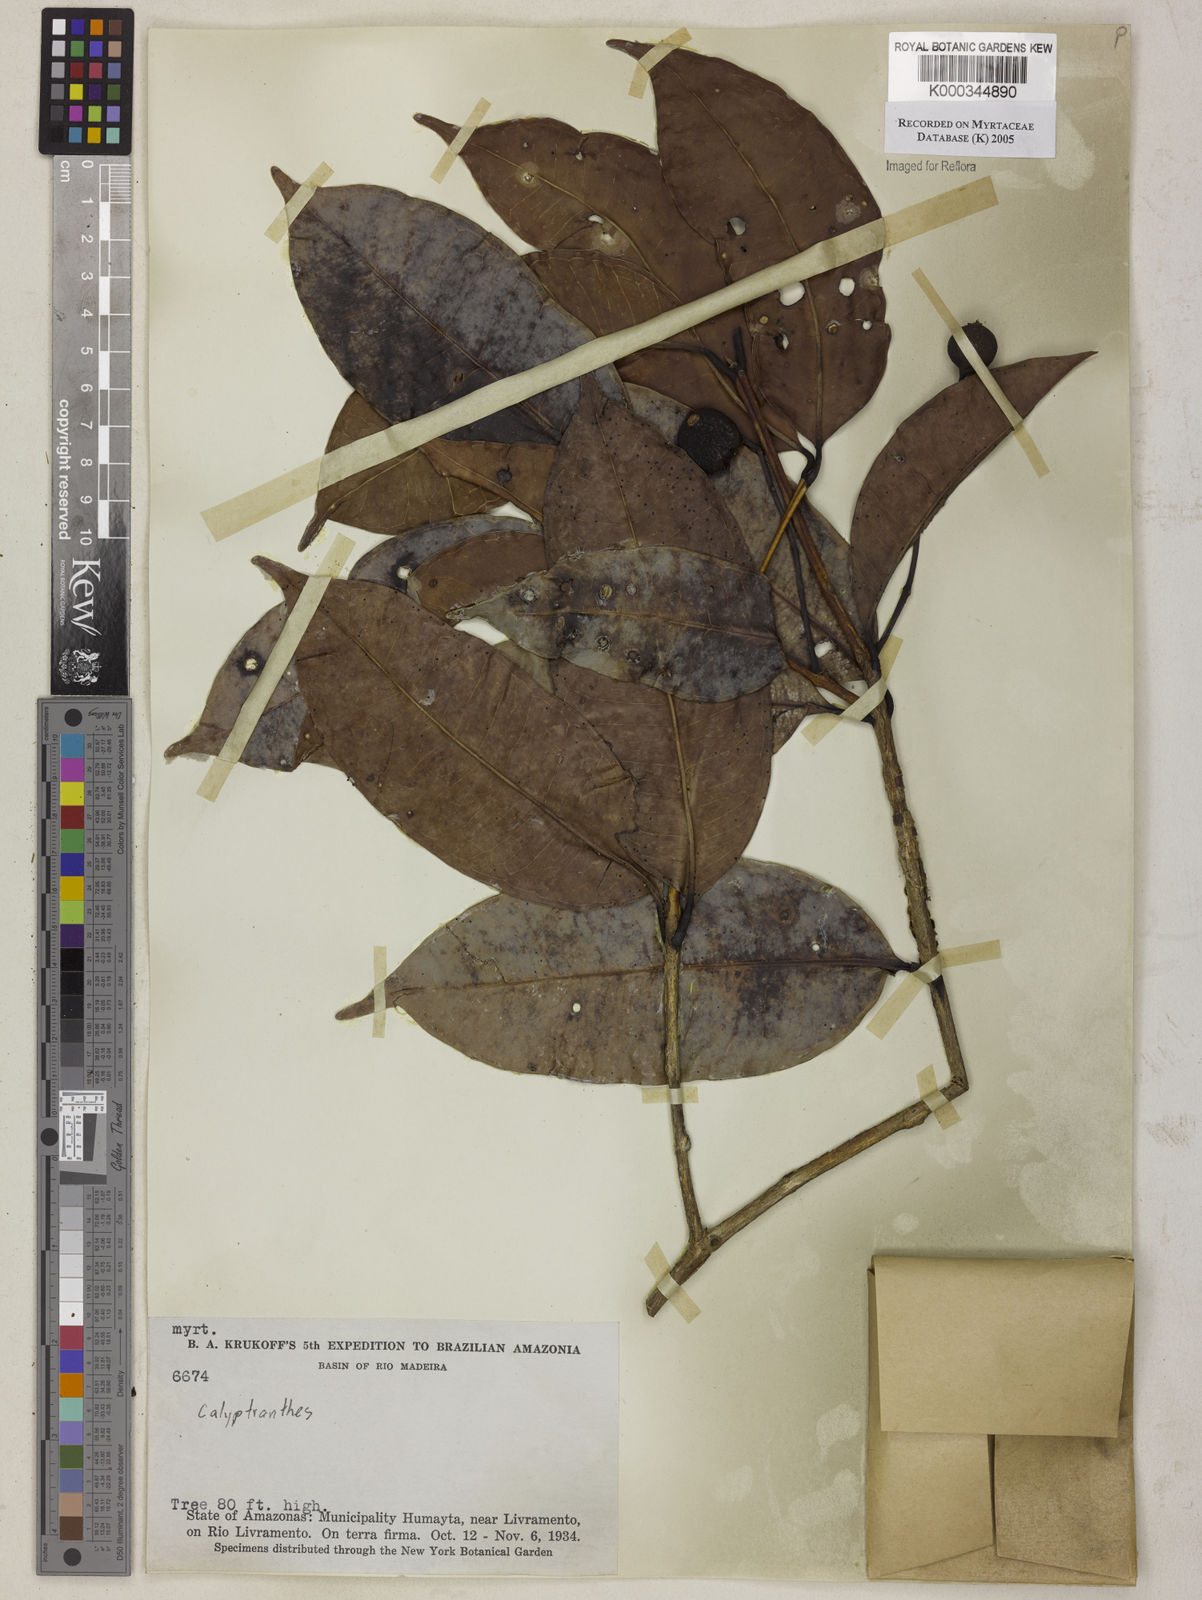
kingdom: Plantae
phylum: Tracheophyta
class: Magnoliopsida
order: Myrtales
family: Myrtaceae
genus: Myrcia
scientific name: Myrcia
